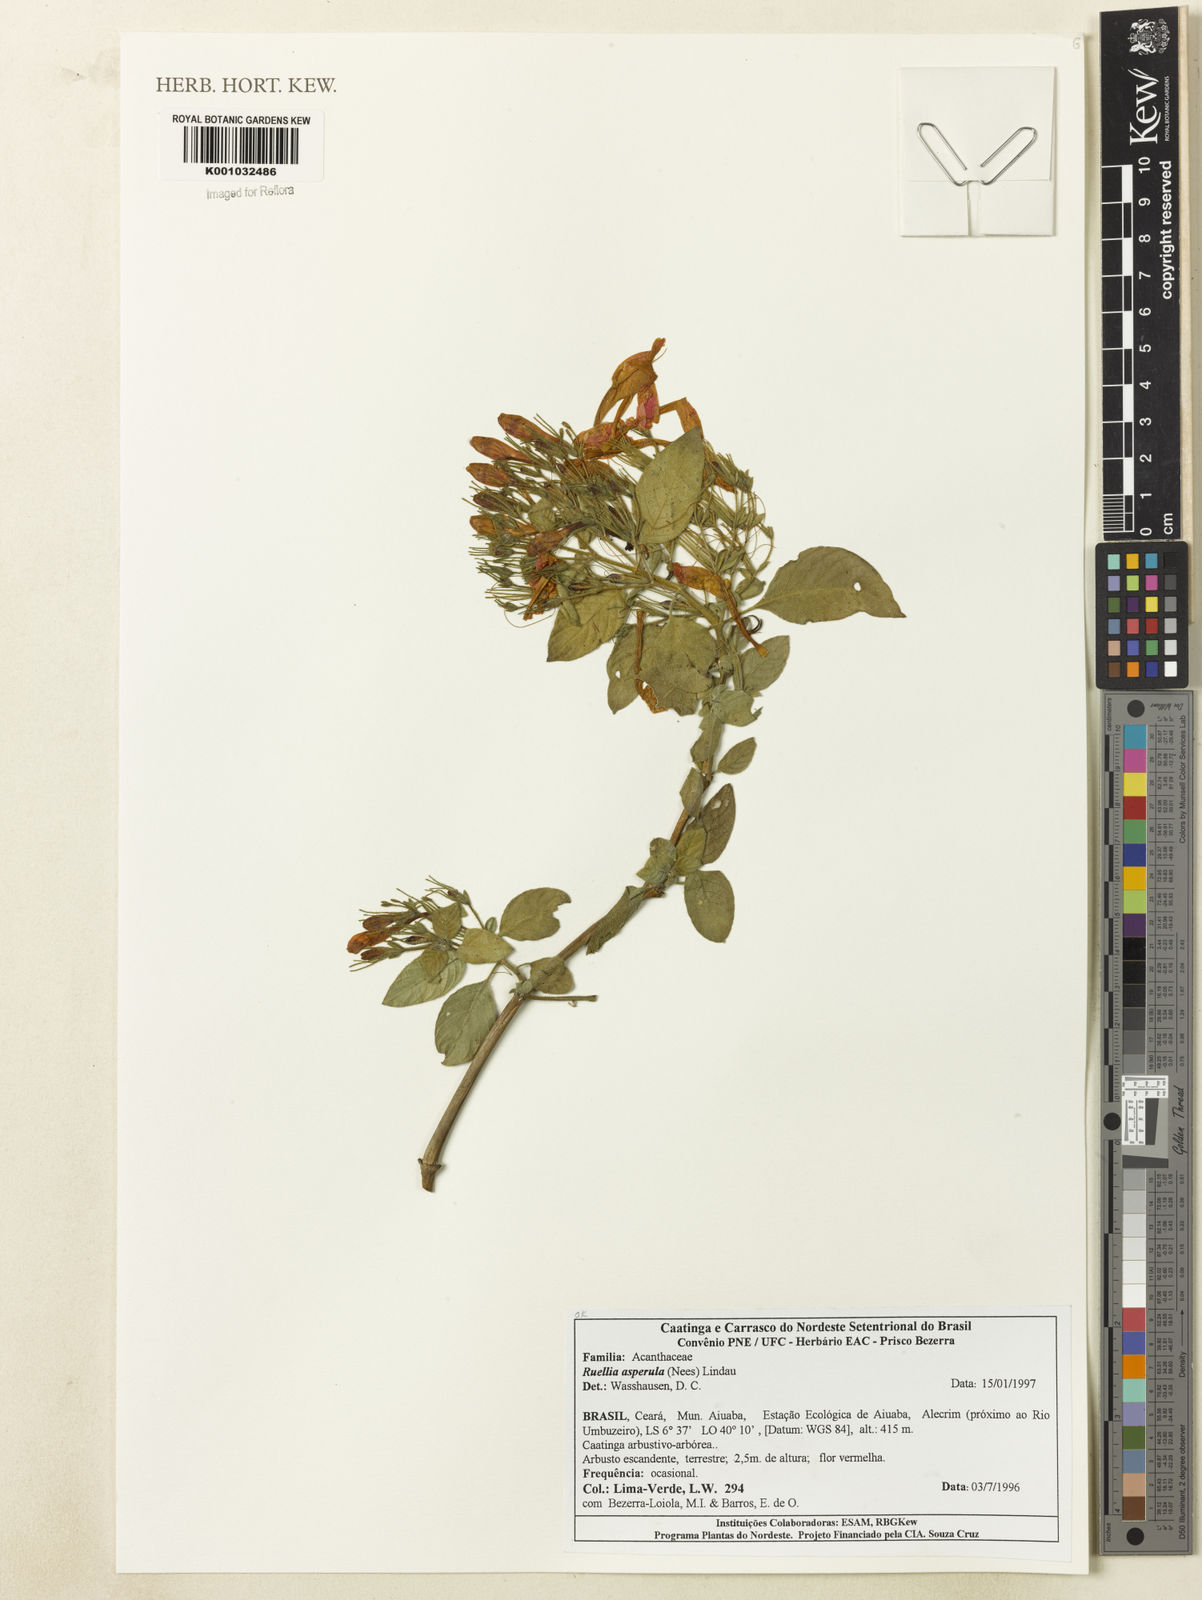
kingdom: Plantae
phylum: Tracheophyta
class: Magnoliopsida
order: Lamiales
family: Acanthaceae
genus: Ruellia
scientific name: Ruellia asperula
